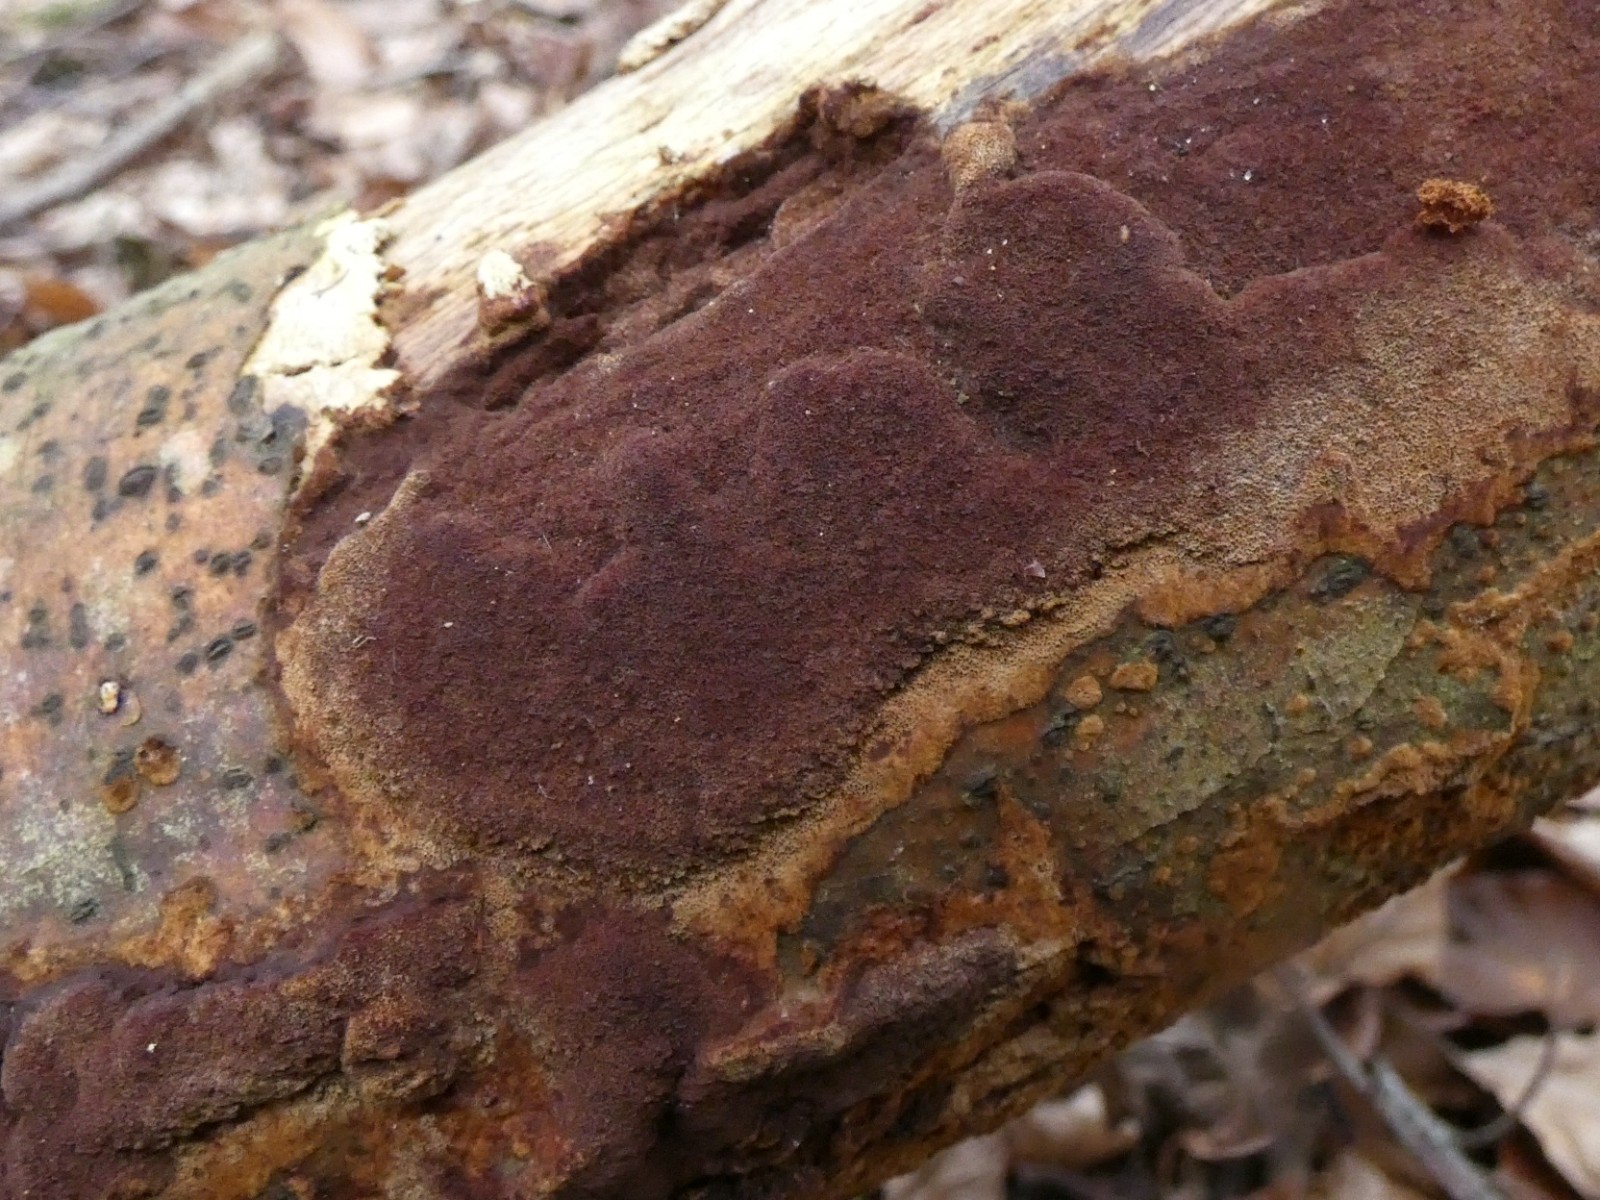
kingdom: Fungi
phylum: Basidiomycota
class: Agaricomycetes
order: Hymenochaetales
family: Hymenochaetaceae
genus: Fuscoporia
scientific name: Fuscoporia ferruginosa
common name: rustbrun ildporesvamp
